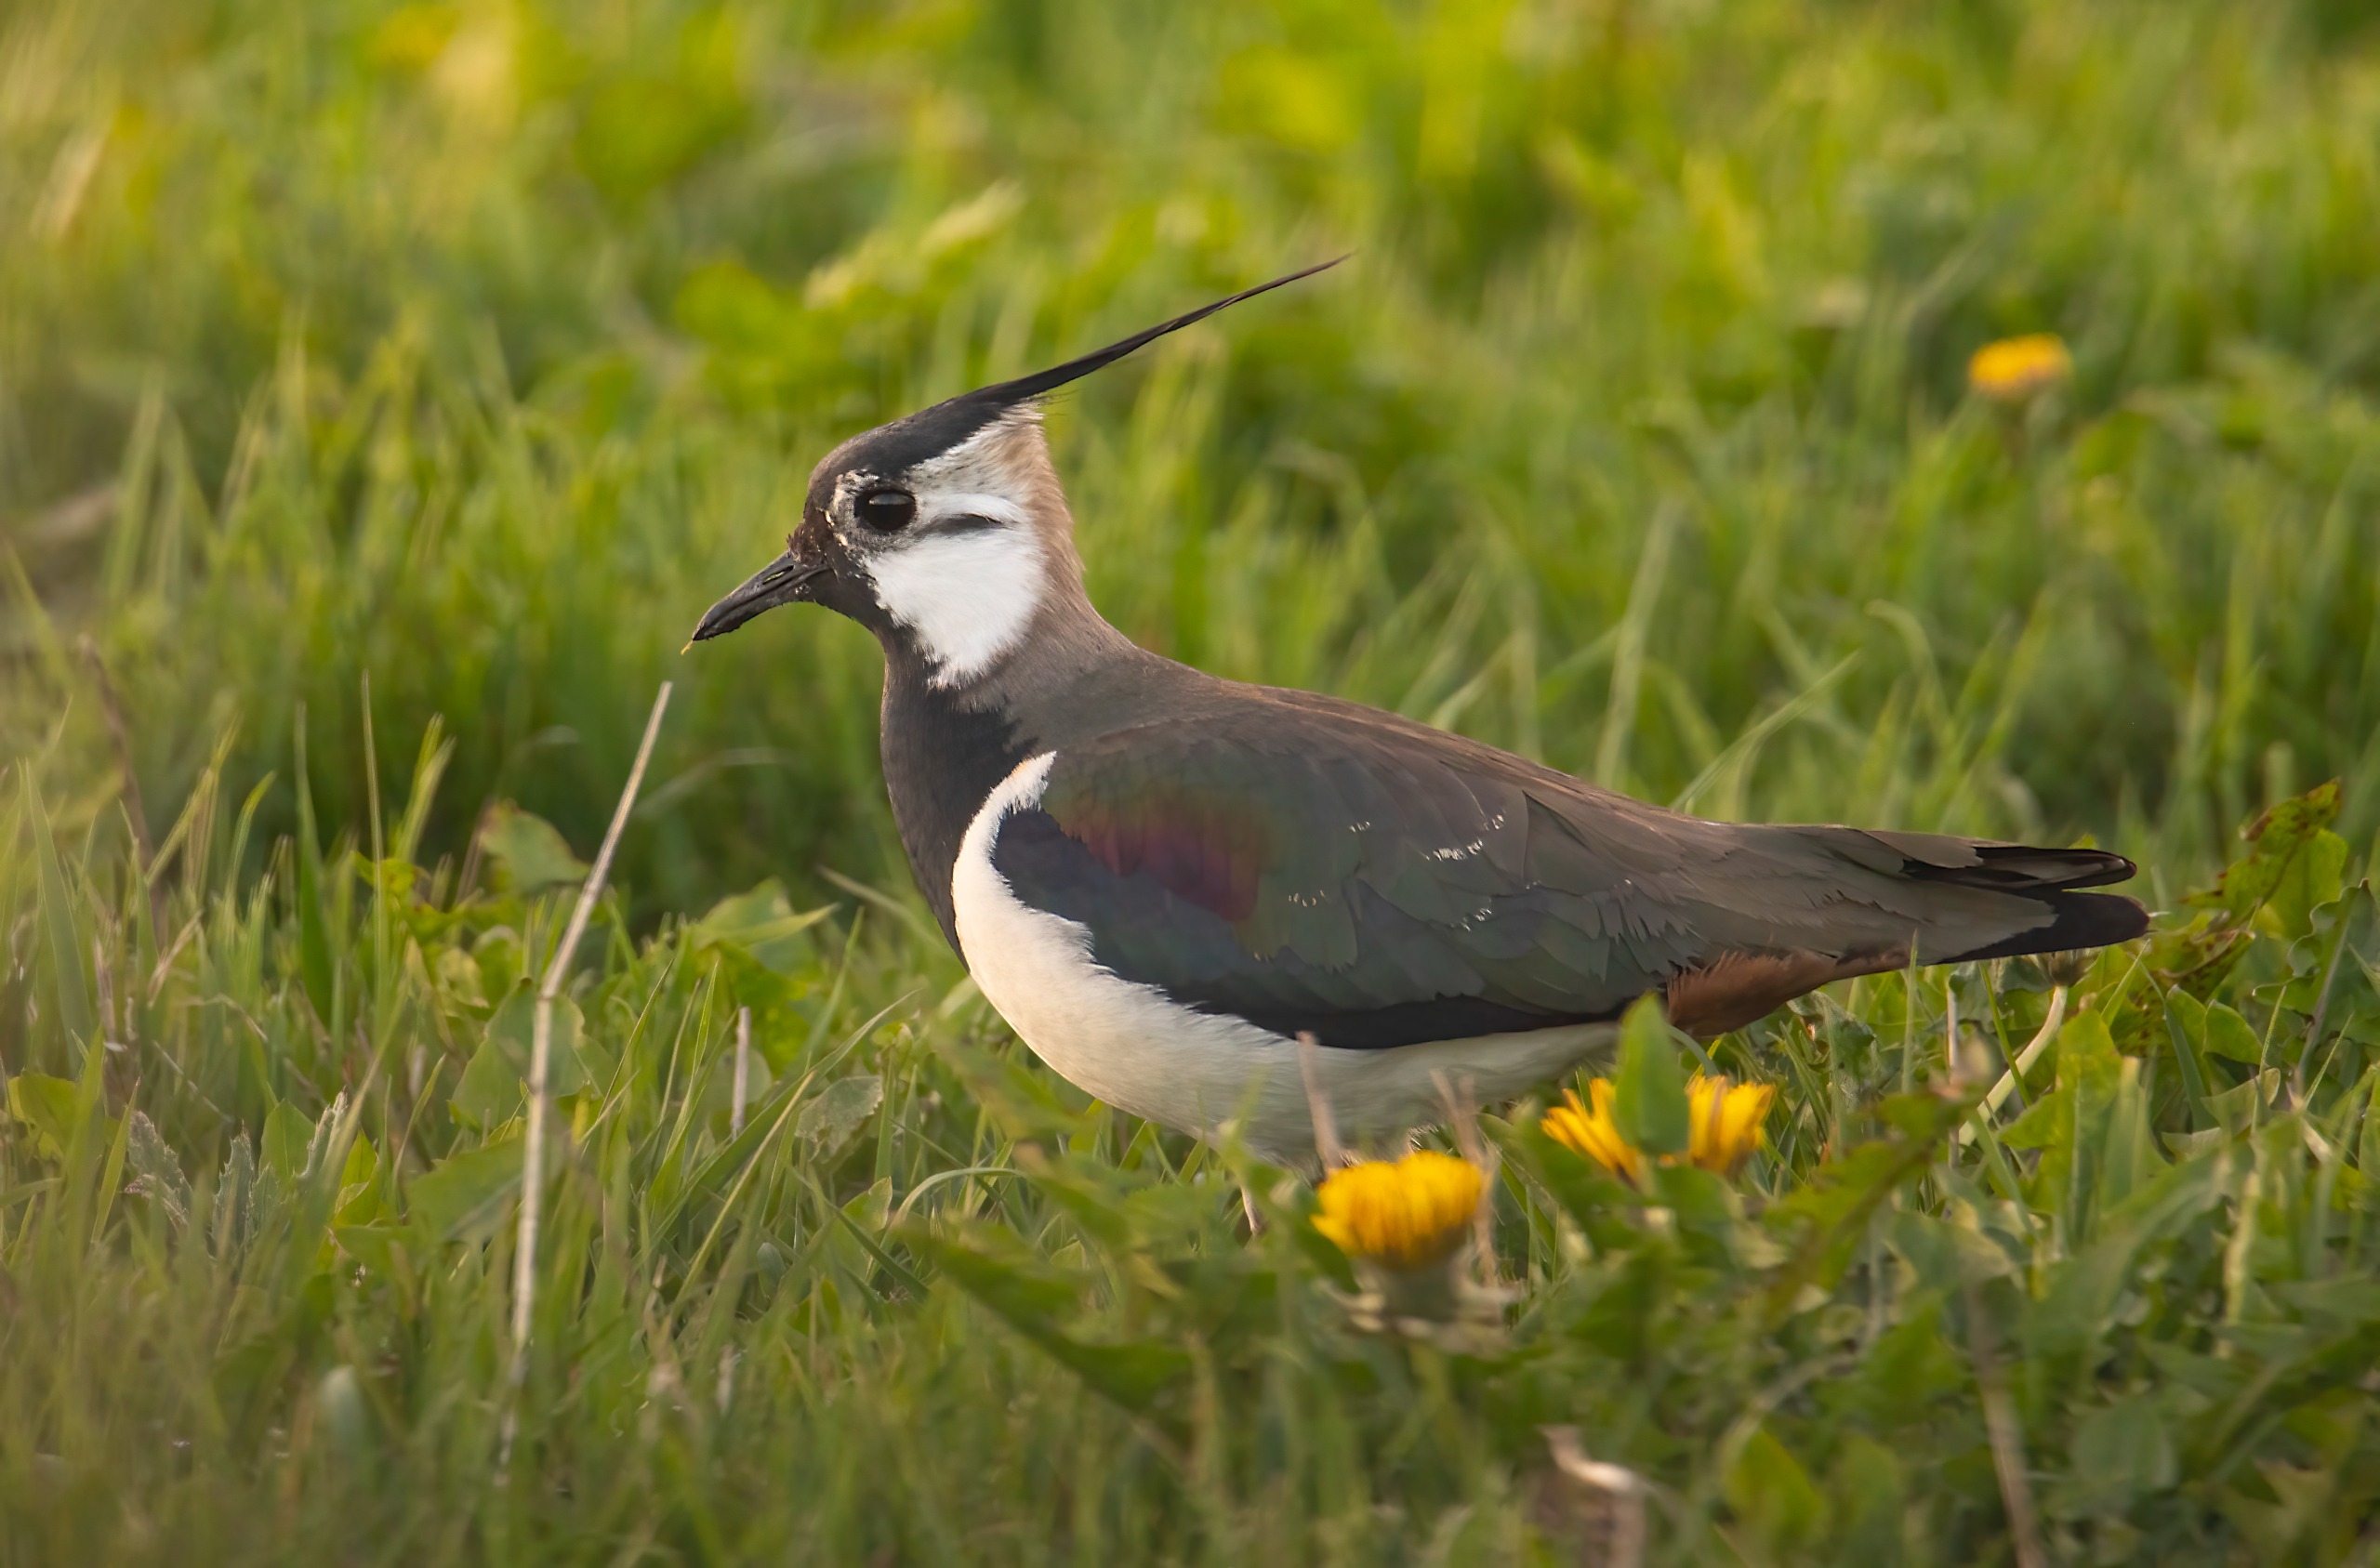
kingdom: Animalia
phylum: Chordata
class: Aves
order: Charadriiformes
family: Charadriidae
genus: Vanellus
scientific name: Vanellus vanellus
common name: Vibe
